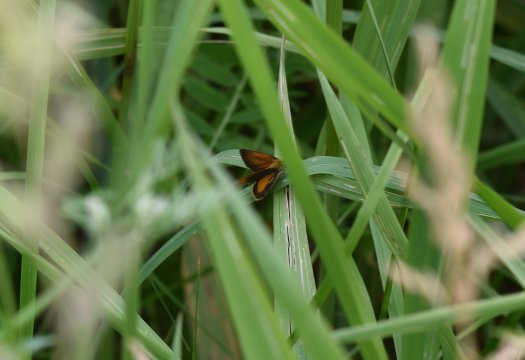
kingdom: Animalia
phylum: Arthropoda
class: Insecta
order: Lepidoptera
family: Hesperiidae
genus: Ancyloxypha
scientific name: Ancyloxypha numitor
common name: Least Skipper
